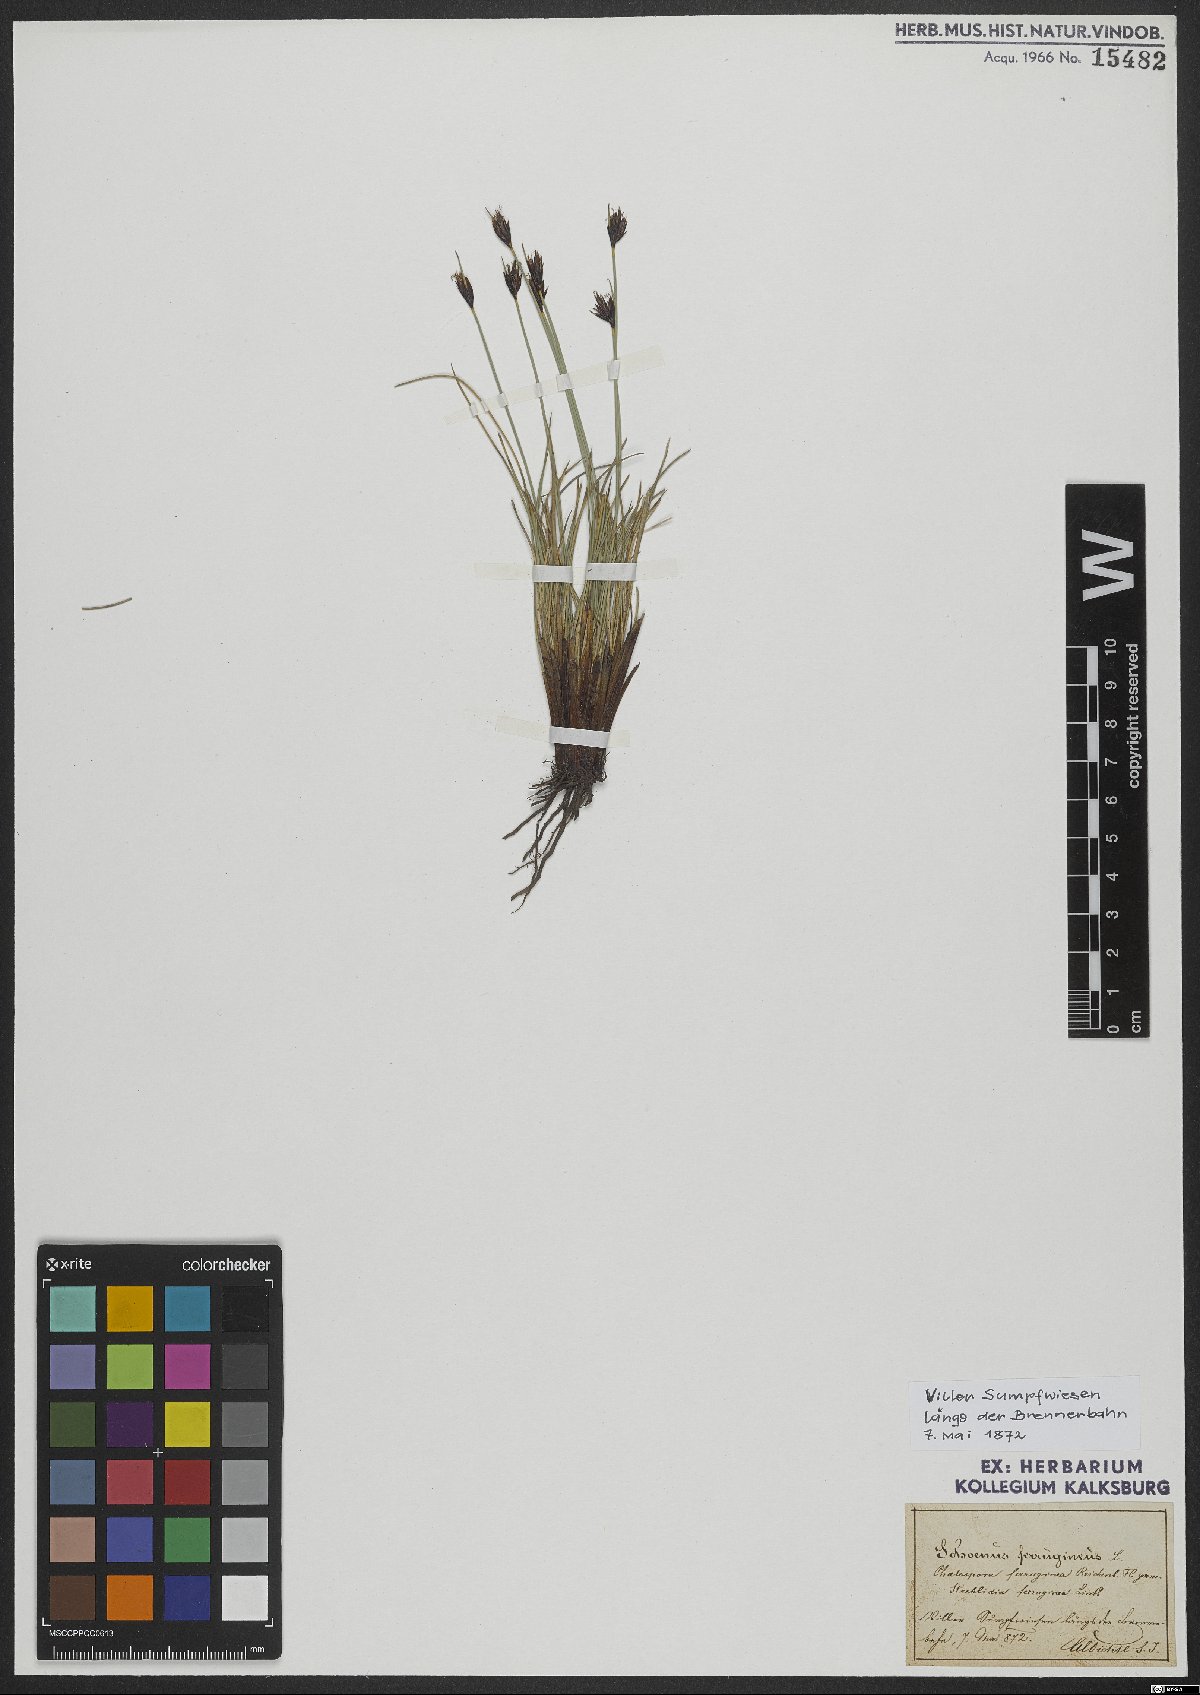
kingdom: Plantae
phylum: Tracheophyta
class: Liliopsida
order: Poales
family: Cyperaceae
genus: Schoenus
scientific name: Schoenus ferrugineus
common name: Brown bog-rush
